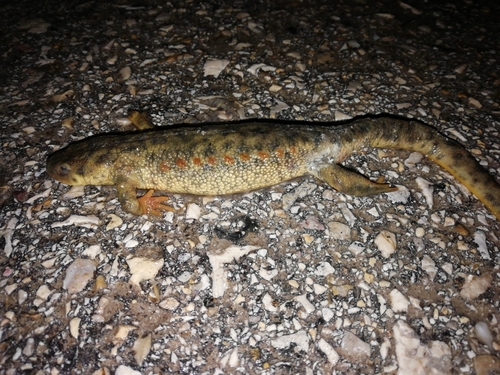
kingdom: Animalia
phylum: Chordata
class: Amphibia
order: Caudata
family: Salamandridae
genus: Pleurodeles
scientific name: Pleurodeles waltl
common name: Iberian ribbed newt
